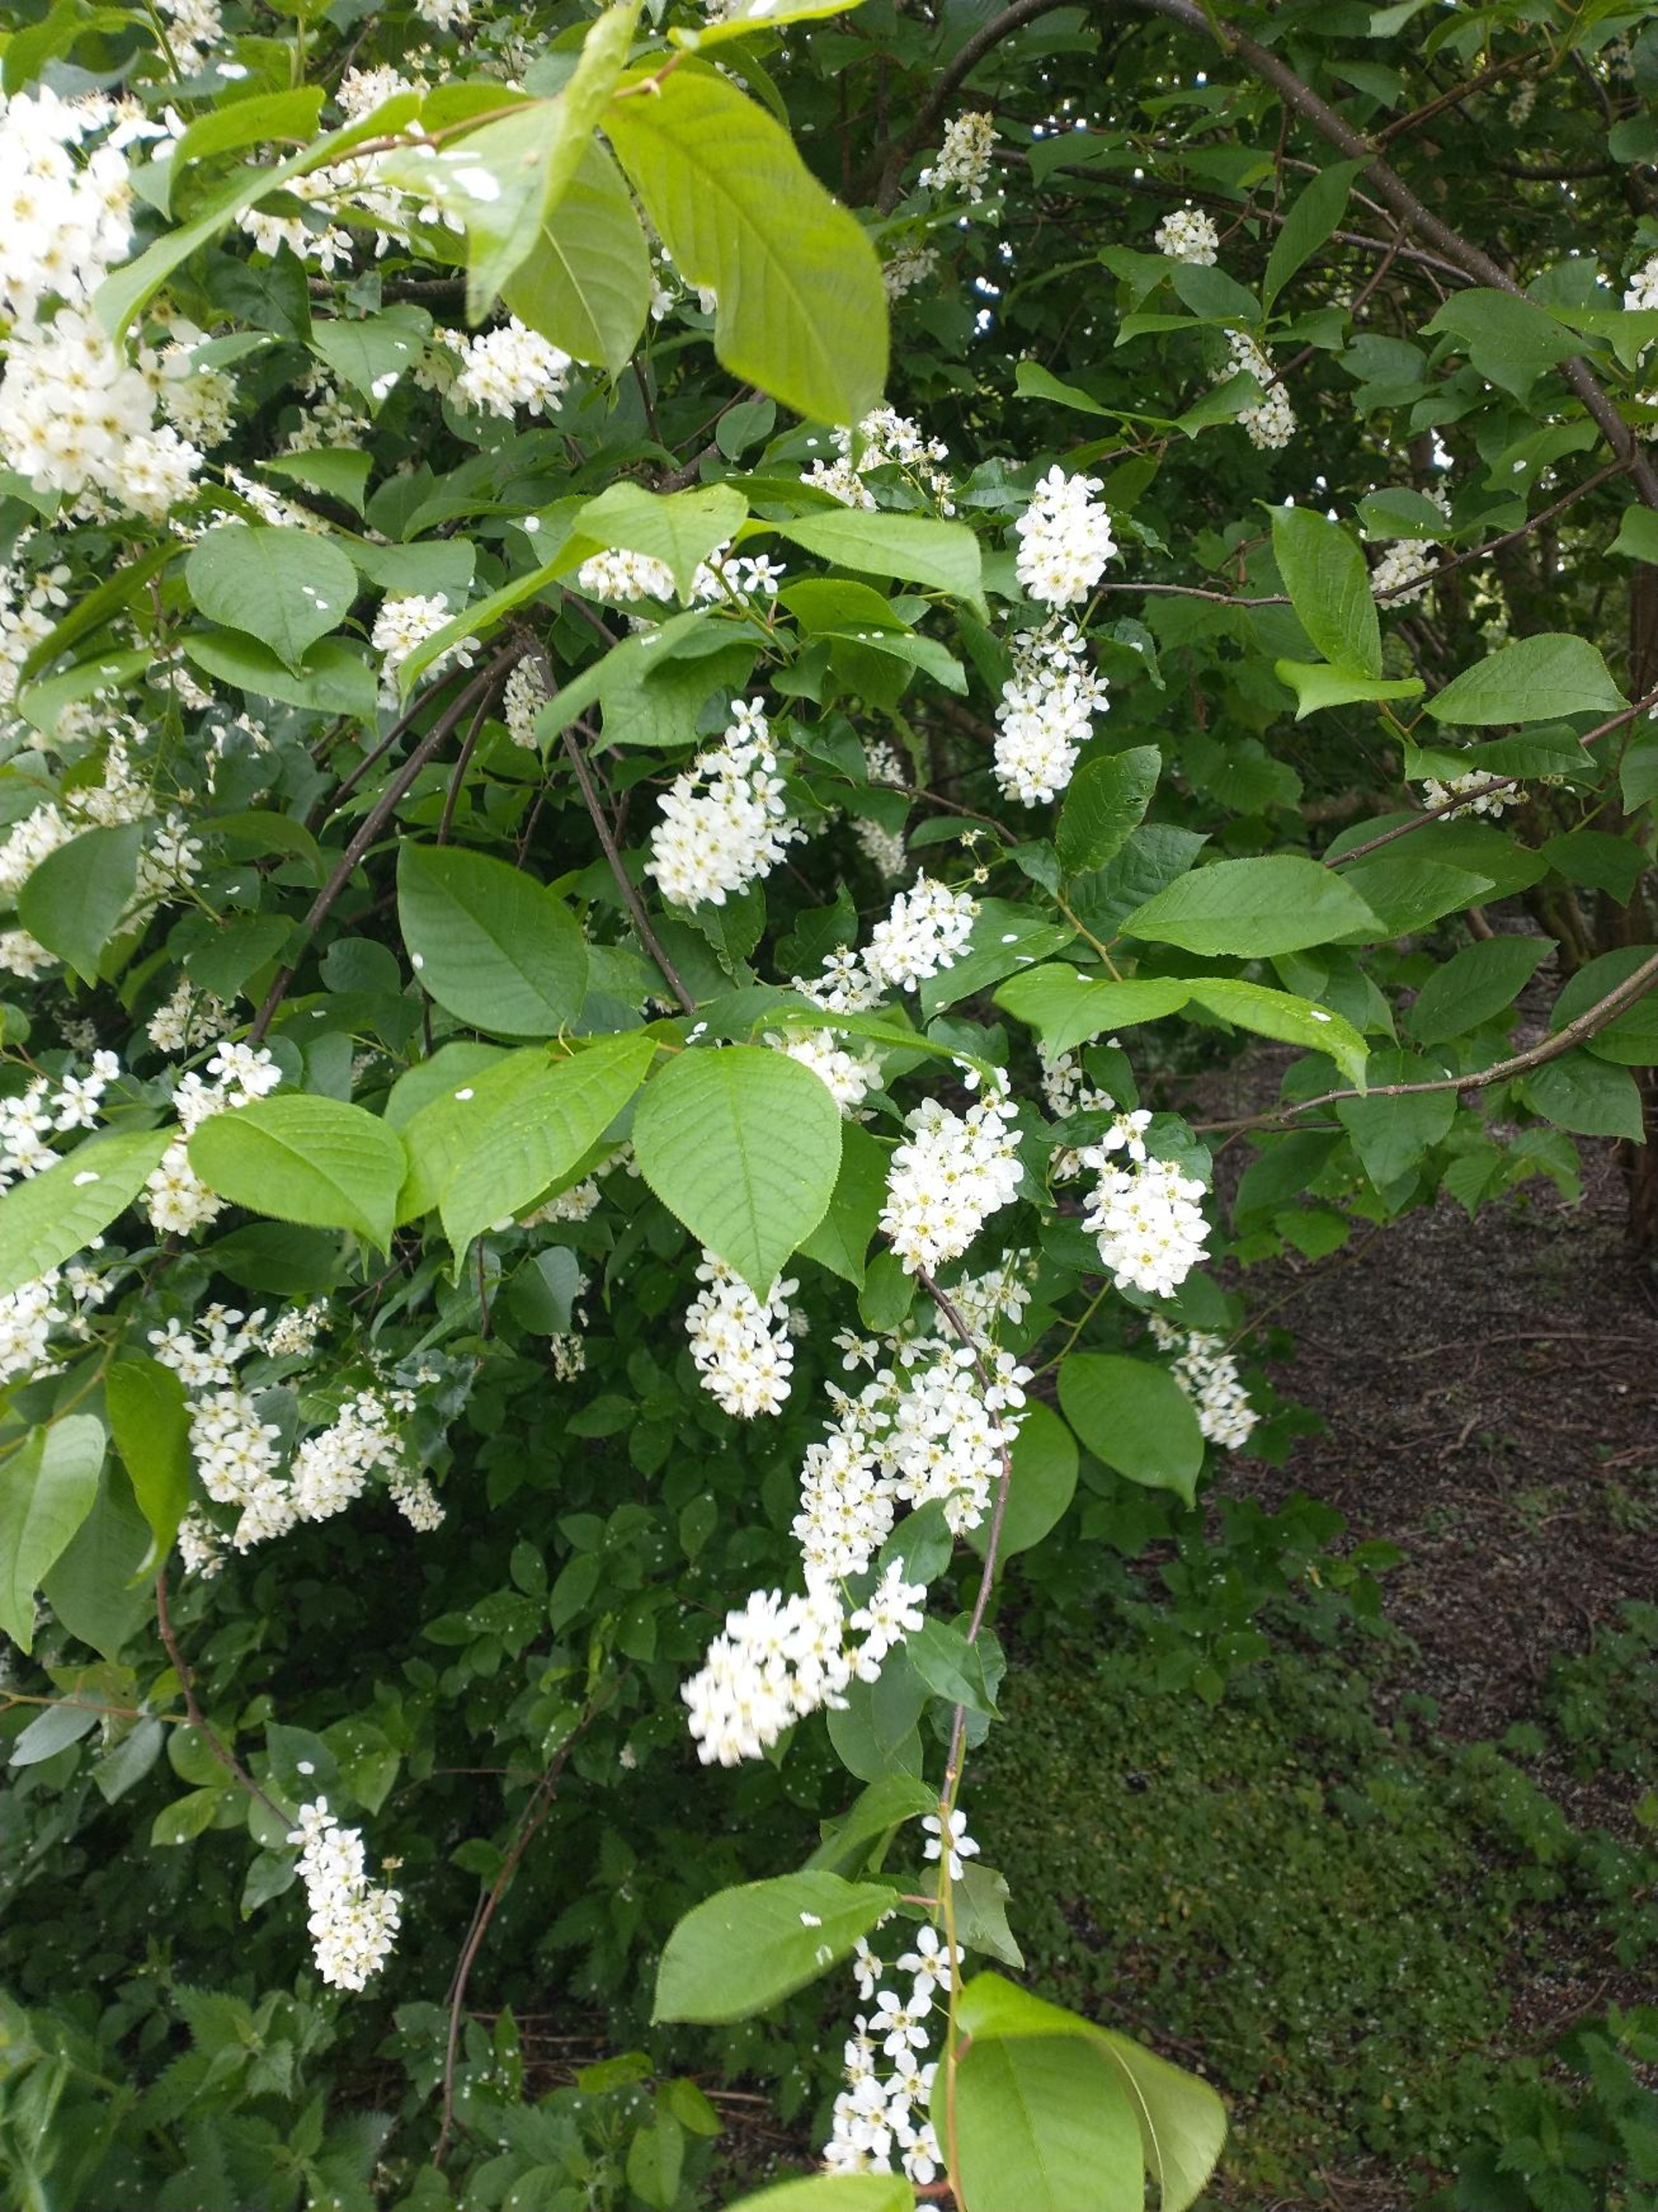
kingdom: Plantae
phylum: Tracheophyta
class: Magnoliopsida
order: Rosales
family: Rosaceae
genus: Prunus
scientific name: Prunus padus
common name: Almindelig hæg
